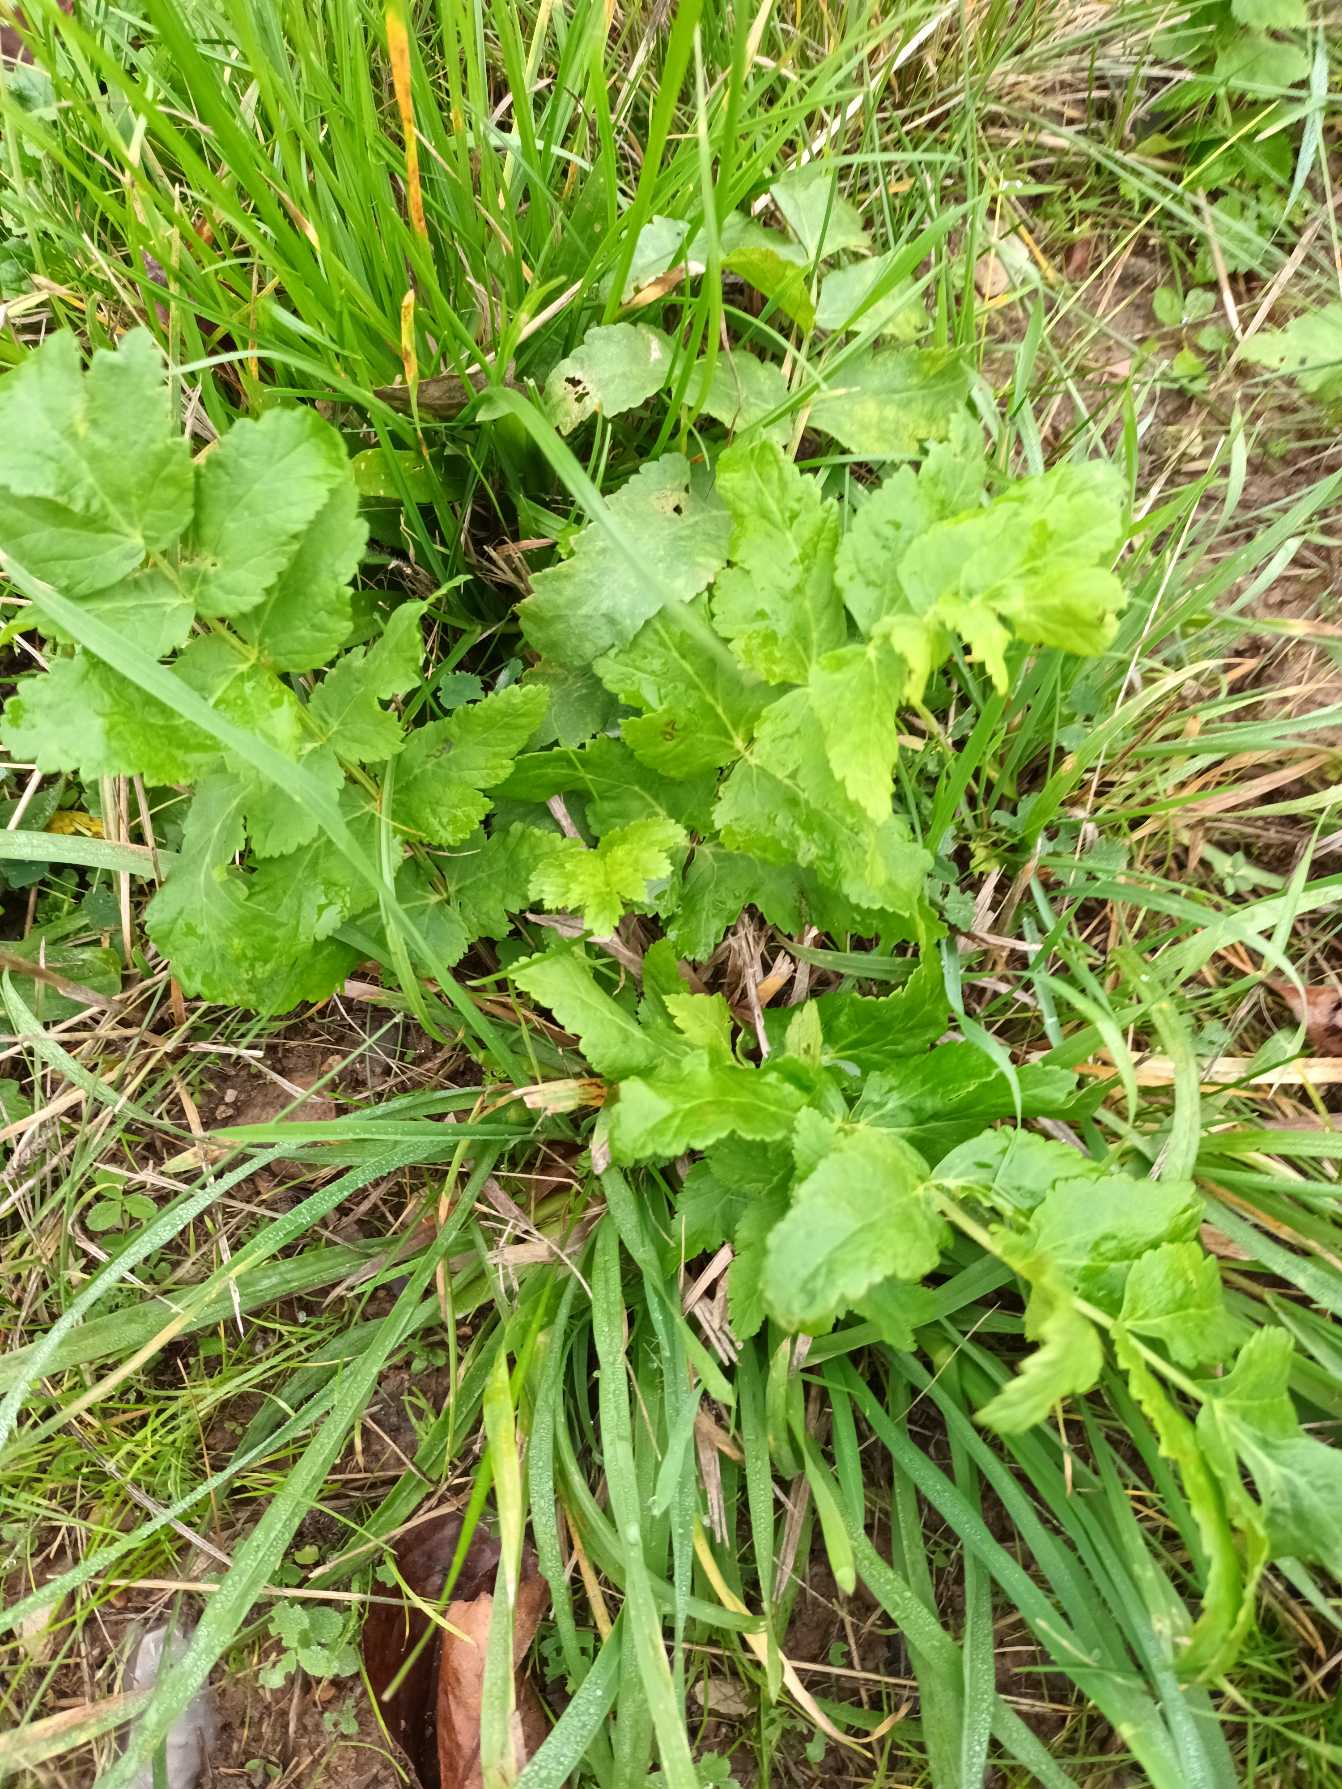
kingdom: Plantae
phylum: Tracheophyta
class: Magnoliopsida
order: Apiales
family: Apiaceae
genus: Pastinaca
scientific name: Pastinaca sativa
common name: Pastinak
